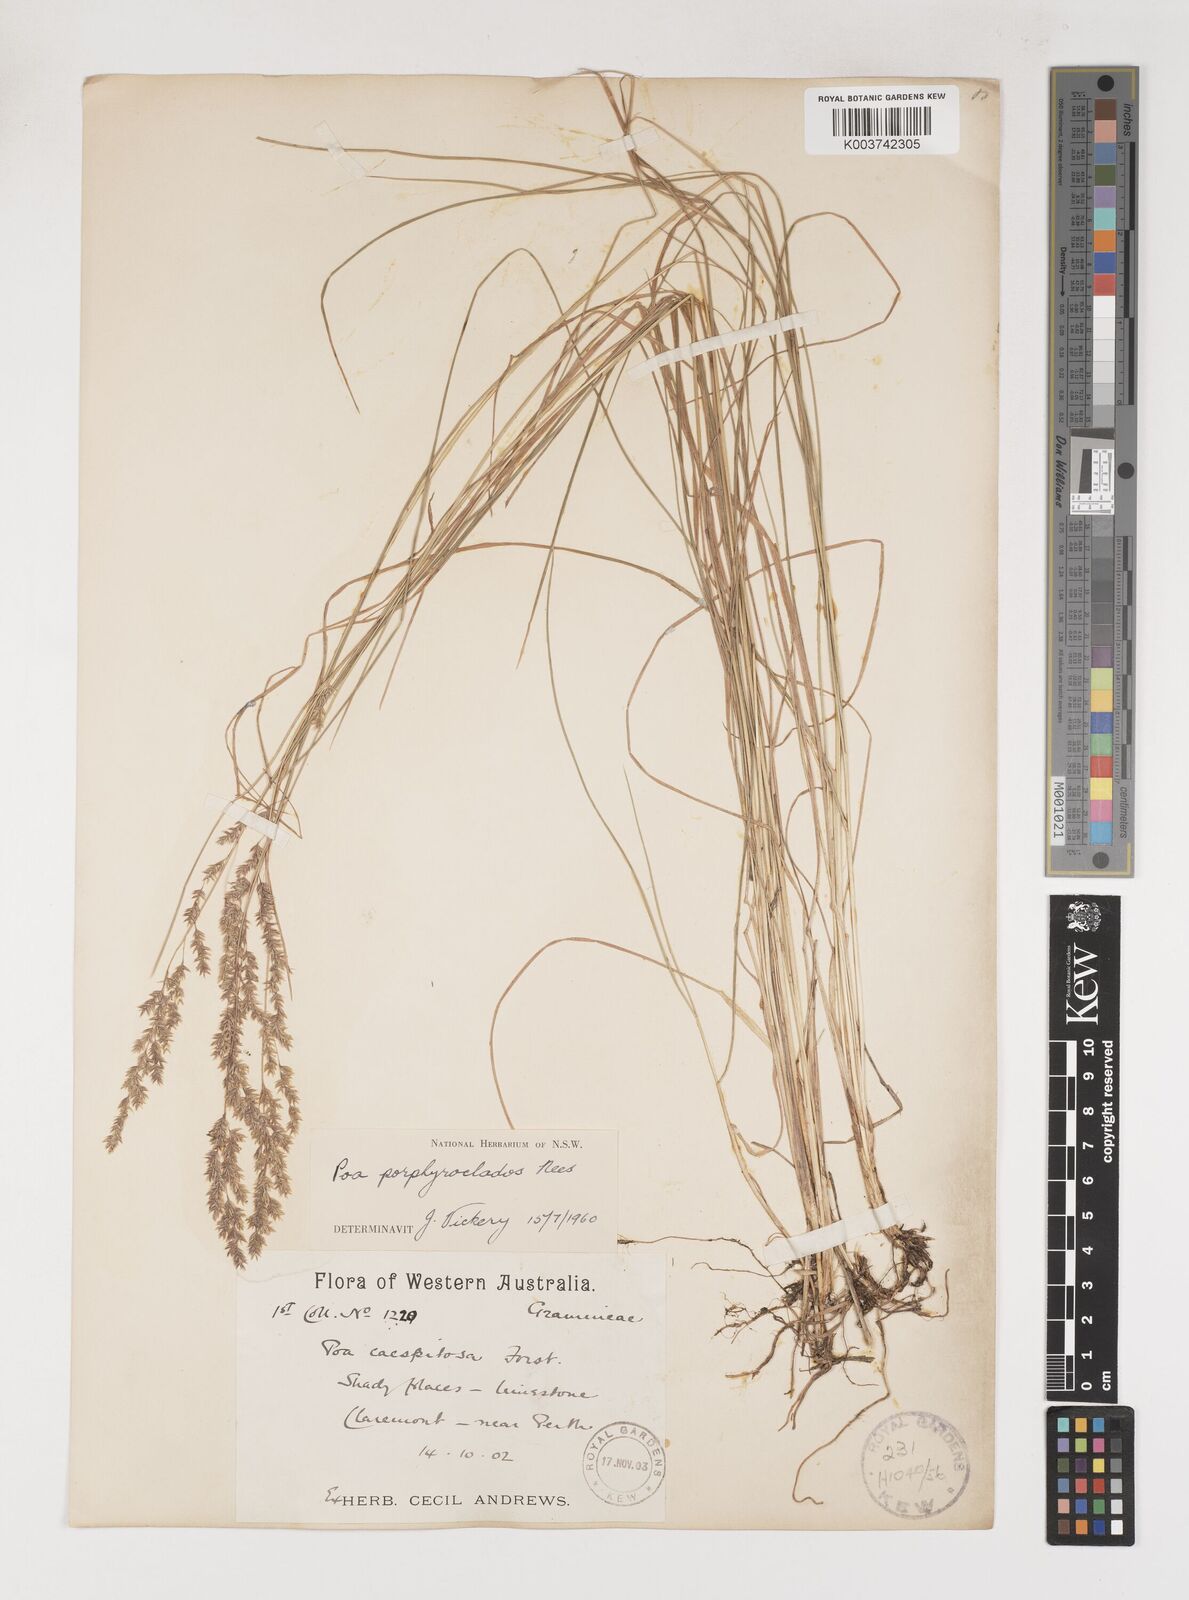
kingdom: Plantae
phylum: Tracheophyta
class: Liliopsida
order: Poales
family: Poaceae
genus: Poa
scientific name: Poa porphyroclados
